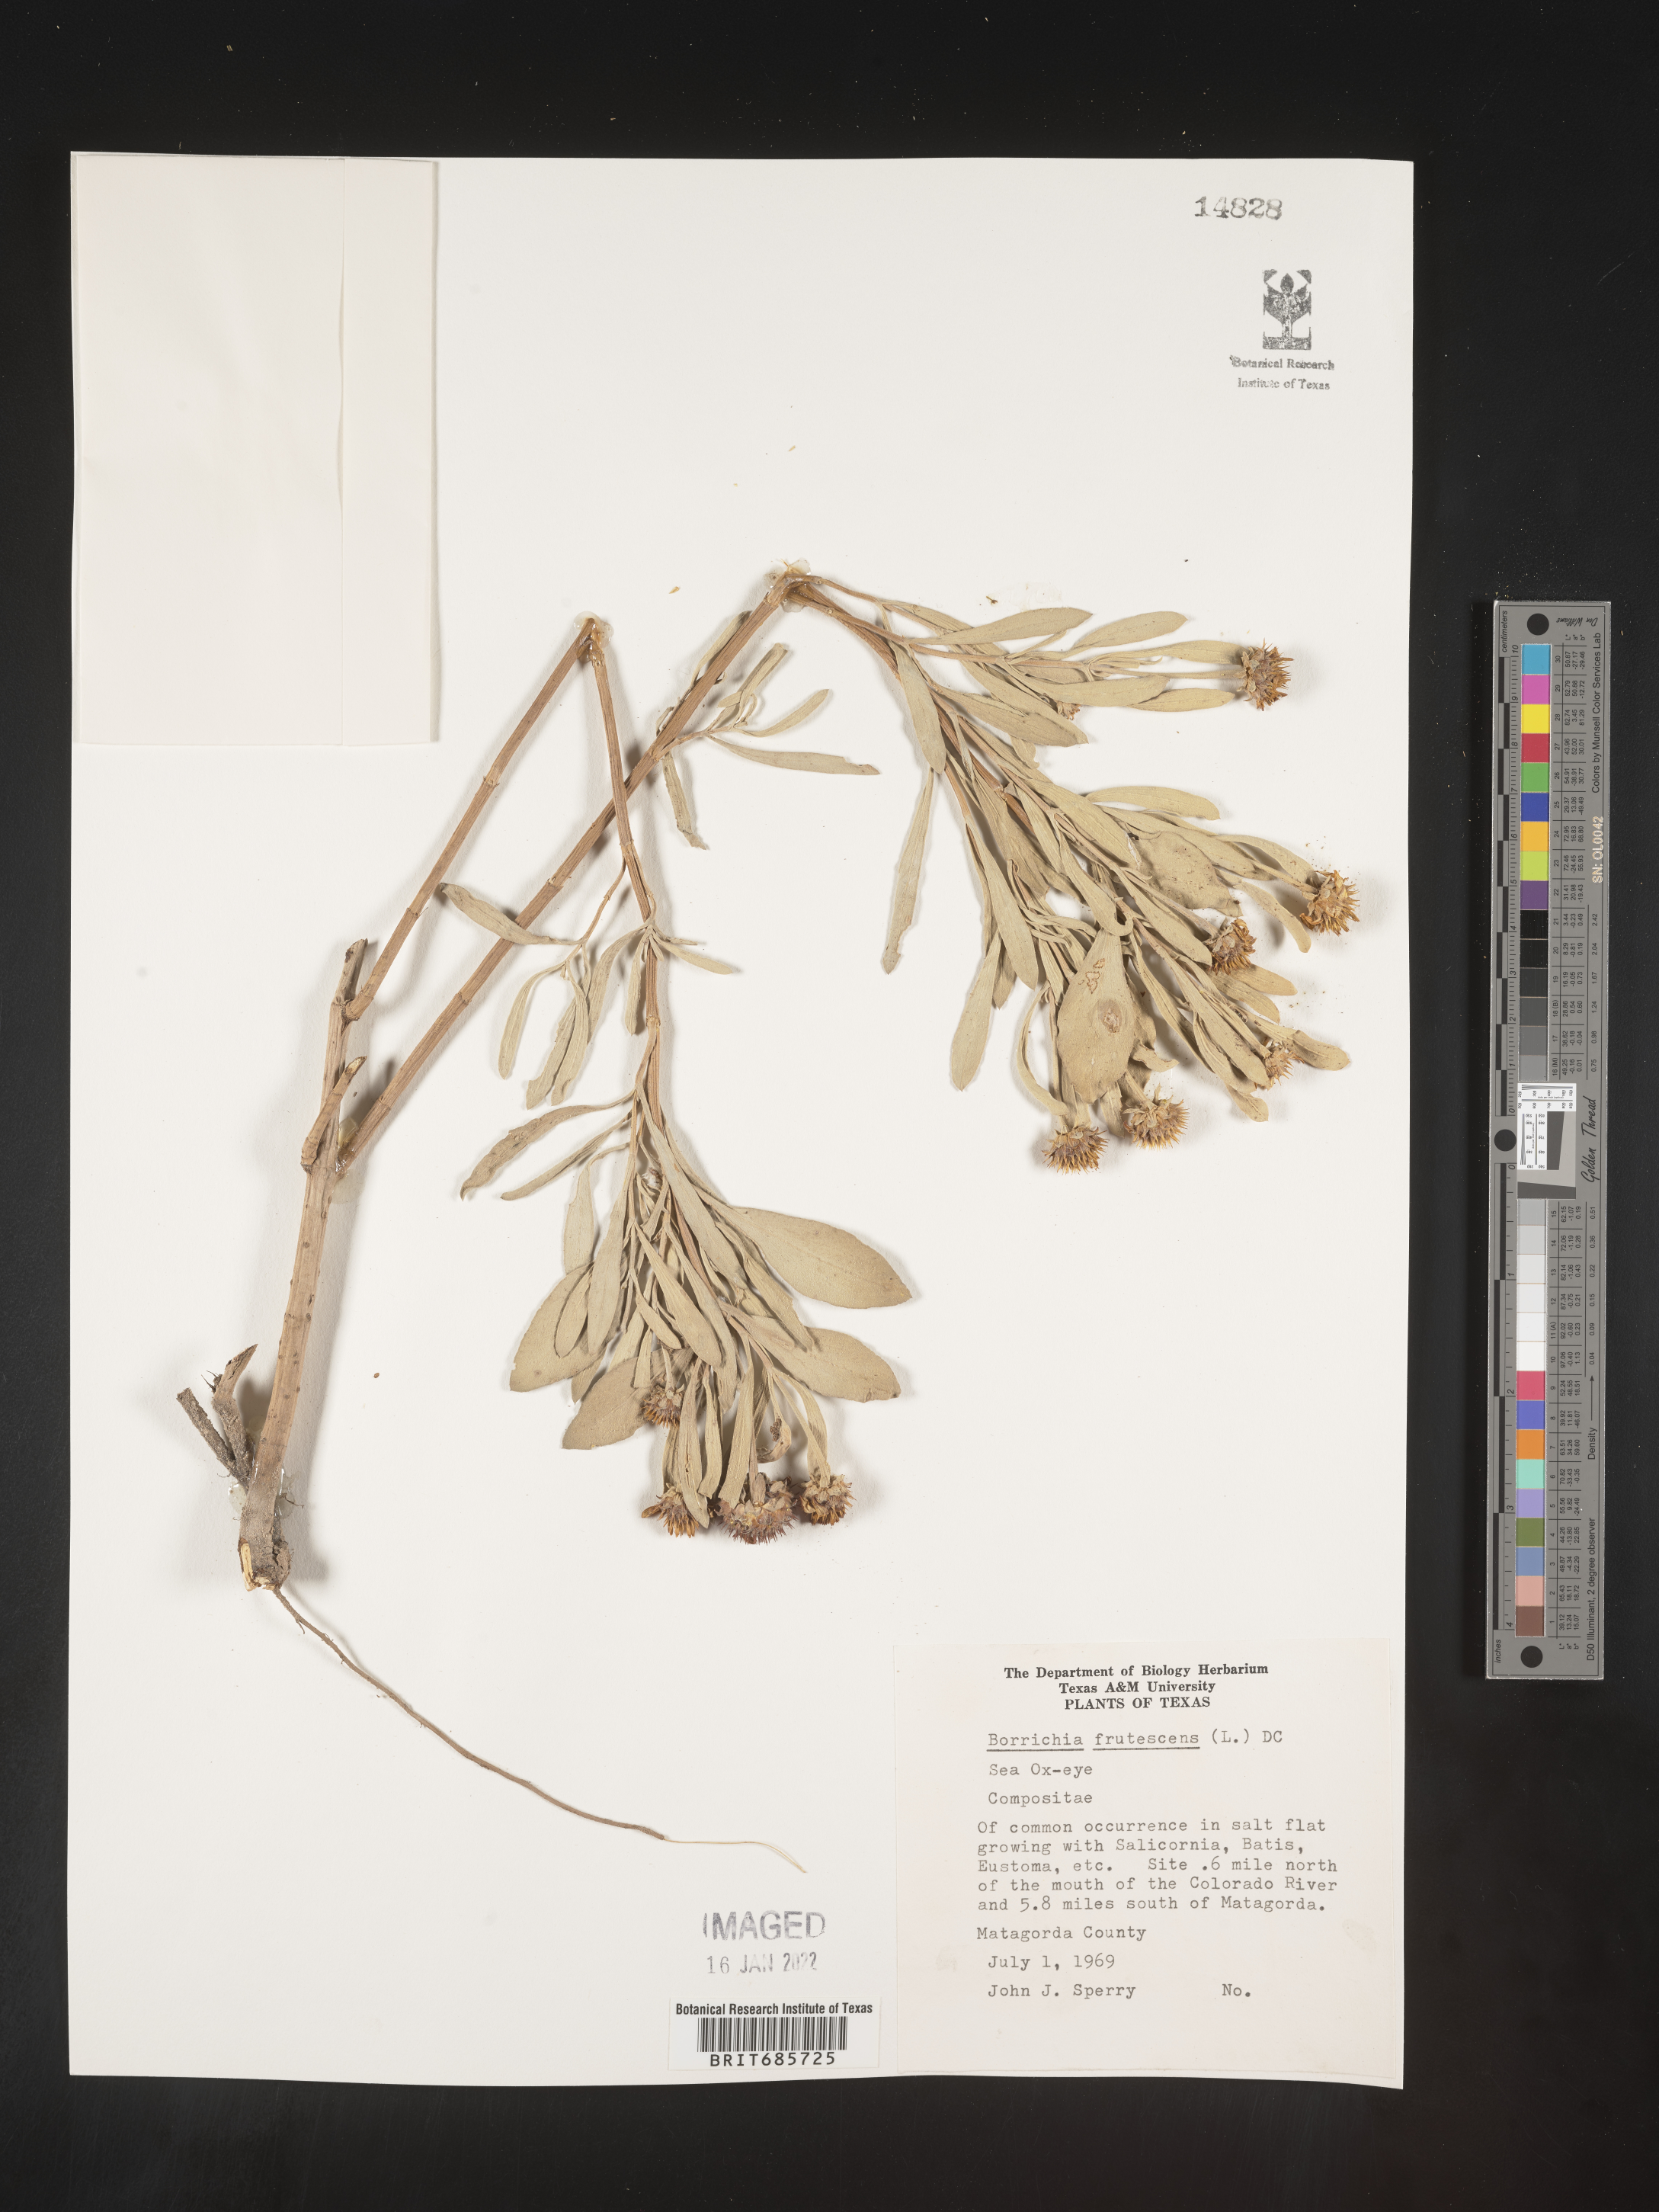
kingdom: Plantae
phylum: Tracheophyta
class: Magnoliopsida
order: Asterales
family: Asteraceae
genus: Borrichia
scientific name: Borrichia frutescens
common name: Sea oxeye
